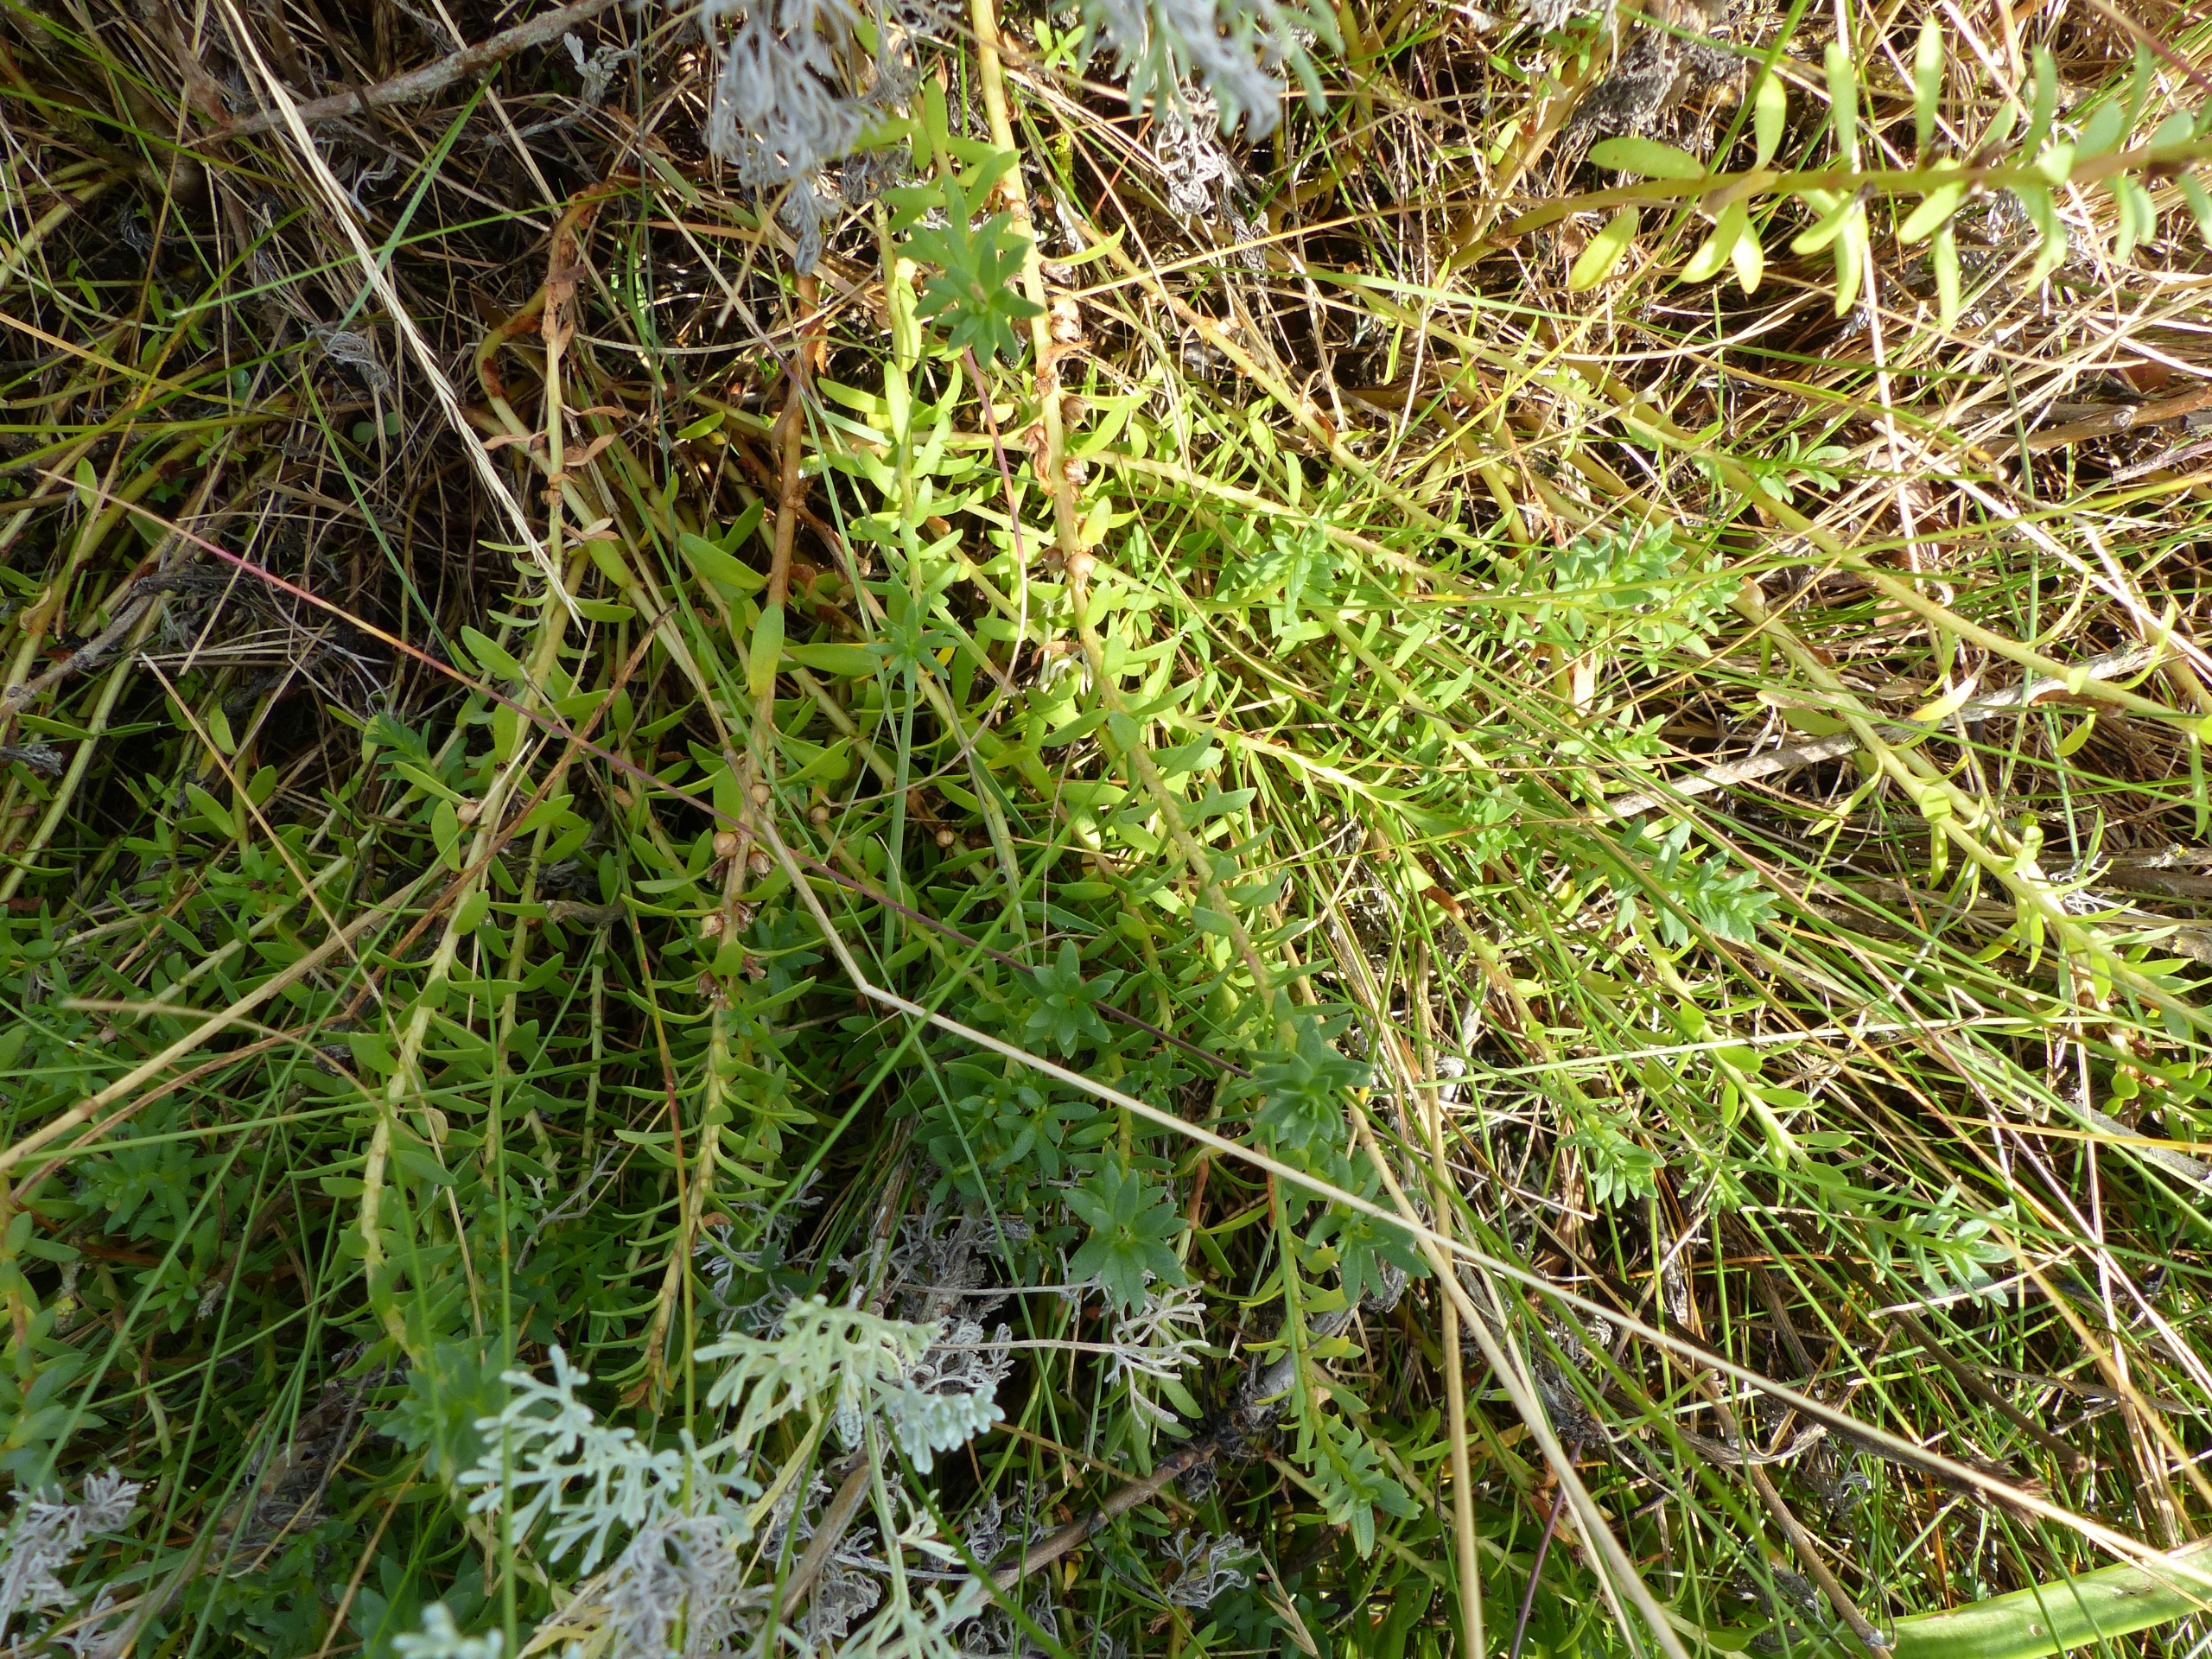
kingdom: Plantae
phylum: Tracheophyta
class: Magnoliopsida
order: Ericales
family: Primulaceae
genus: Lysimachia
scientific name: Lysimachia maritima
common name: Sandkryb
